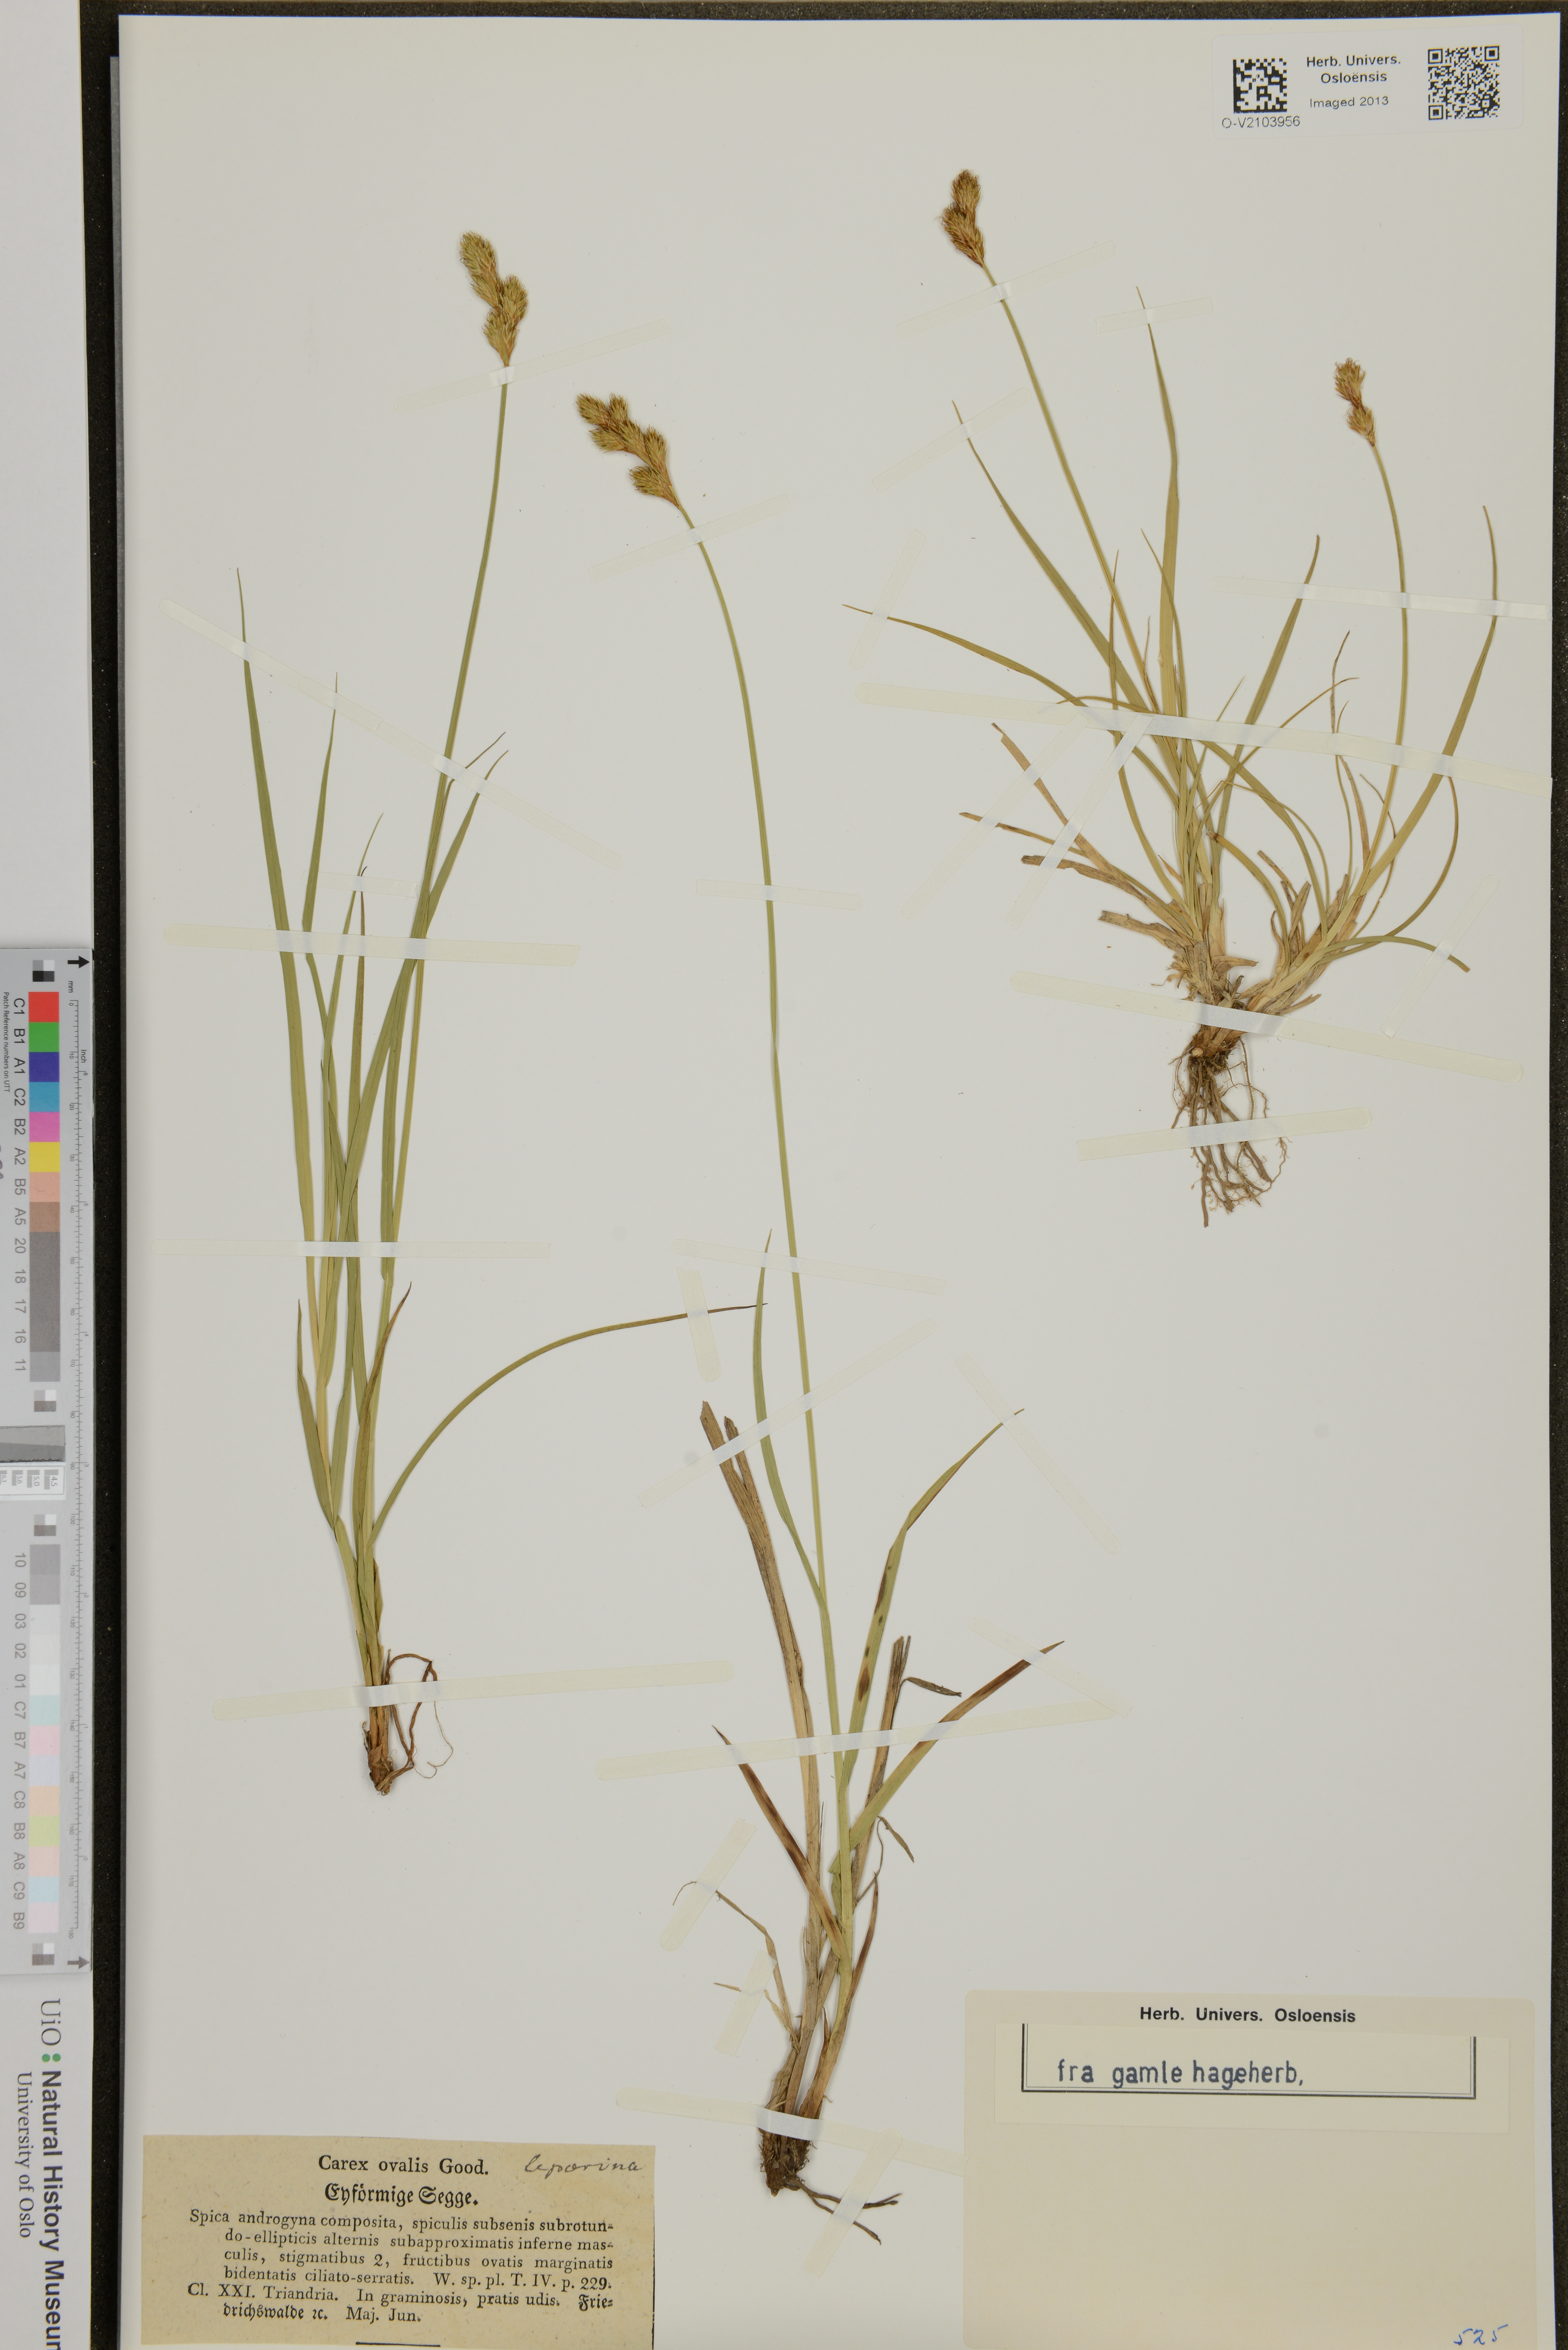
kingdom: Plantae
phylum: Tracheophyta
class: Liliopsida
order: Poales
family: Cyperaceae
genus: Carex
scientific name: Carex leporina
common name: Oval sedge
